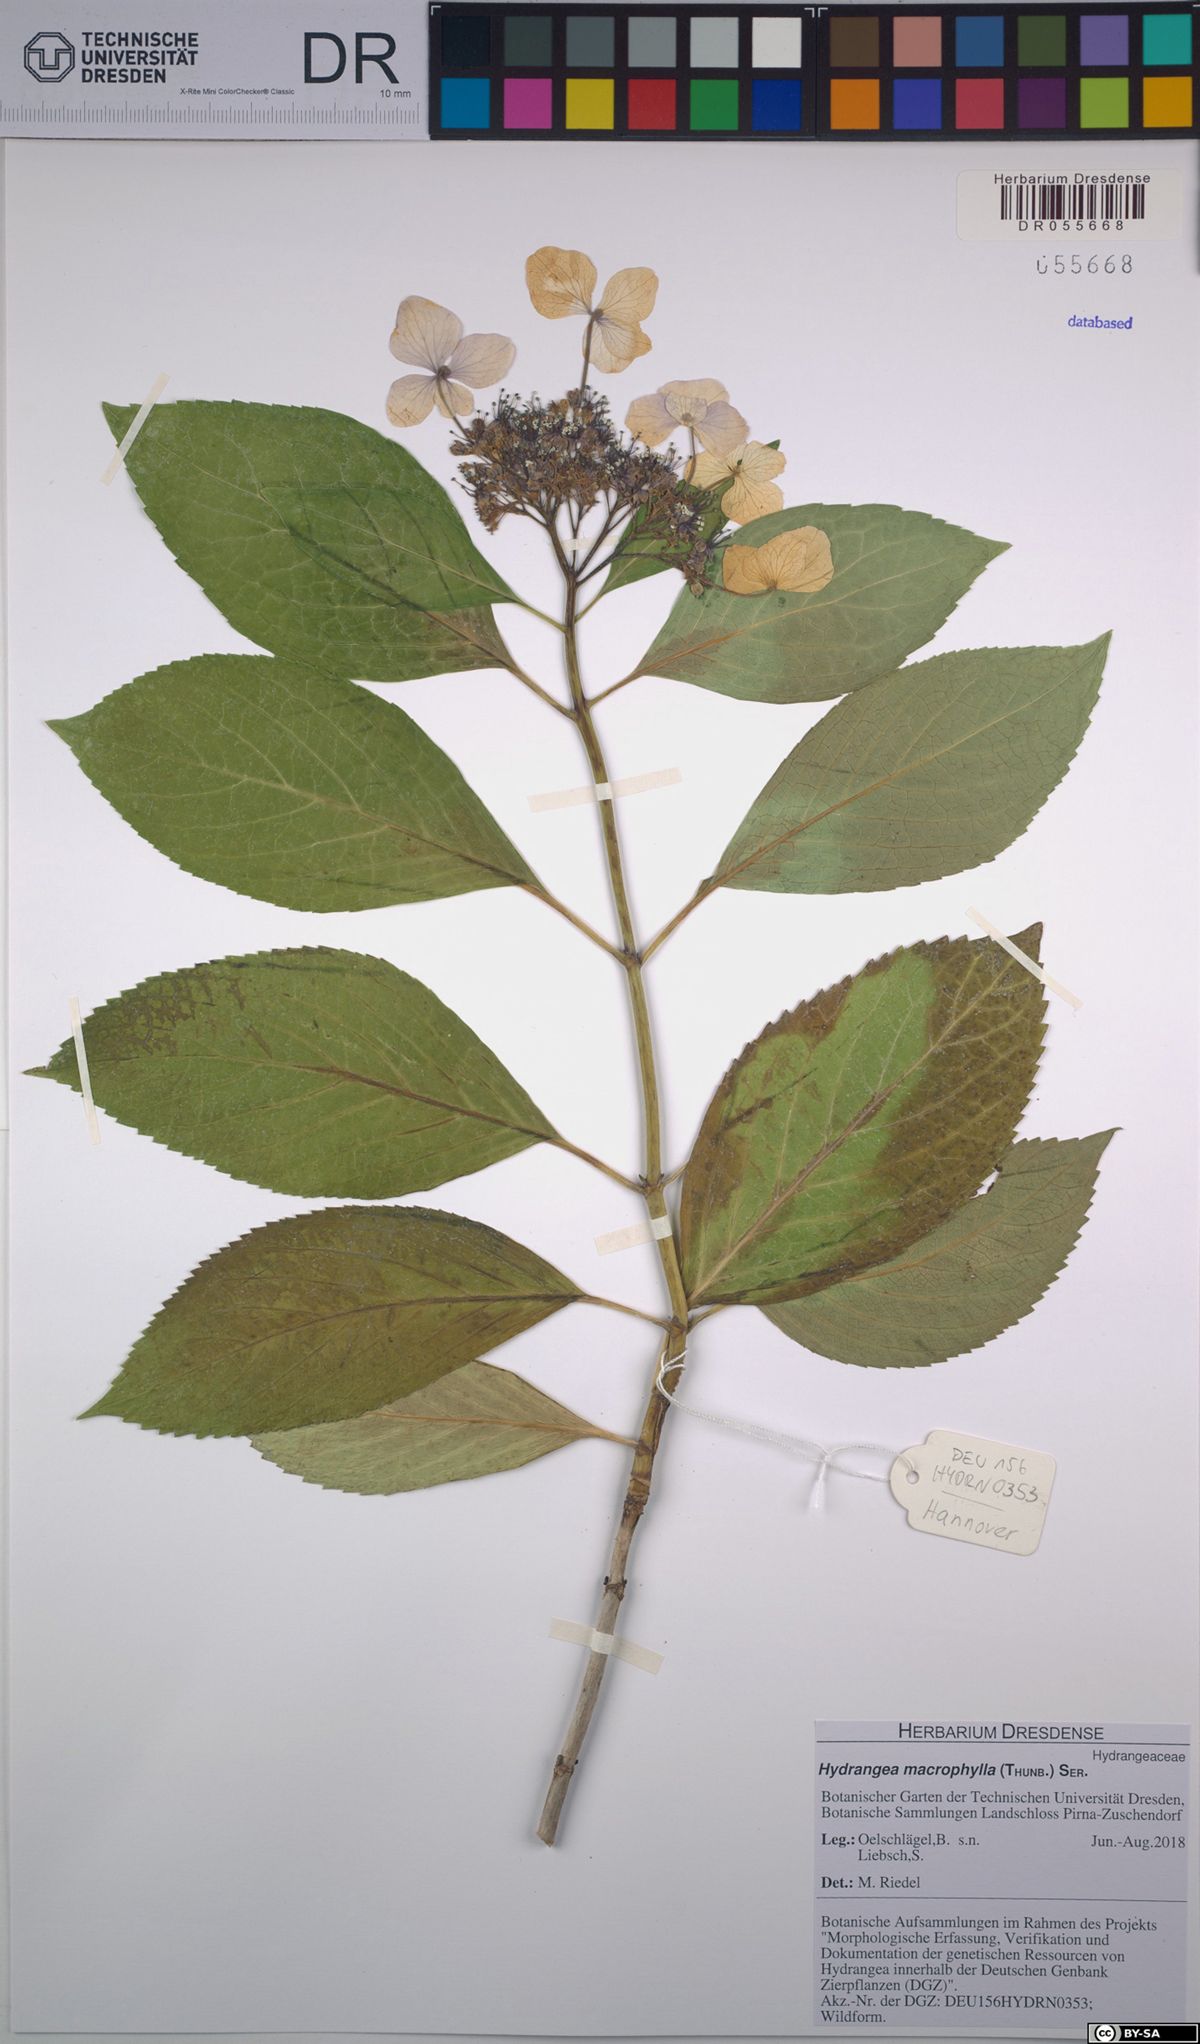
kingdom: Plantae
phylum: Tracheophyta
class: Magnoliopsida
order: Cornales
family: Hydrangeaceae
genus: Hydrangea
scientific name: Hydrangea macrophylla
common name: Hydrangea
